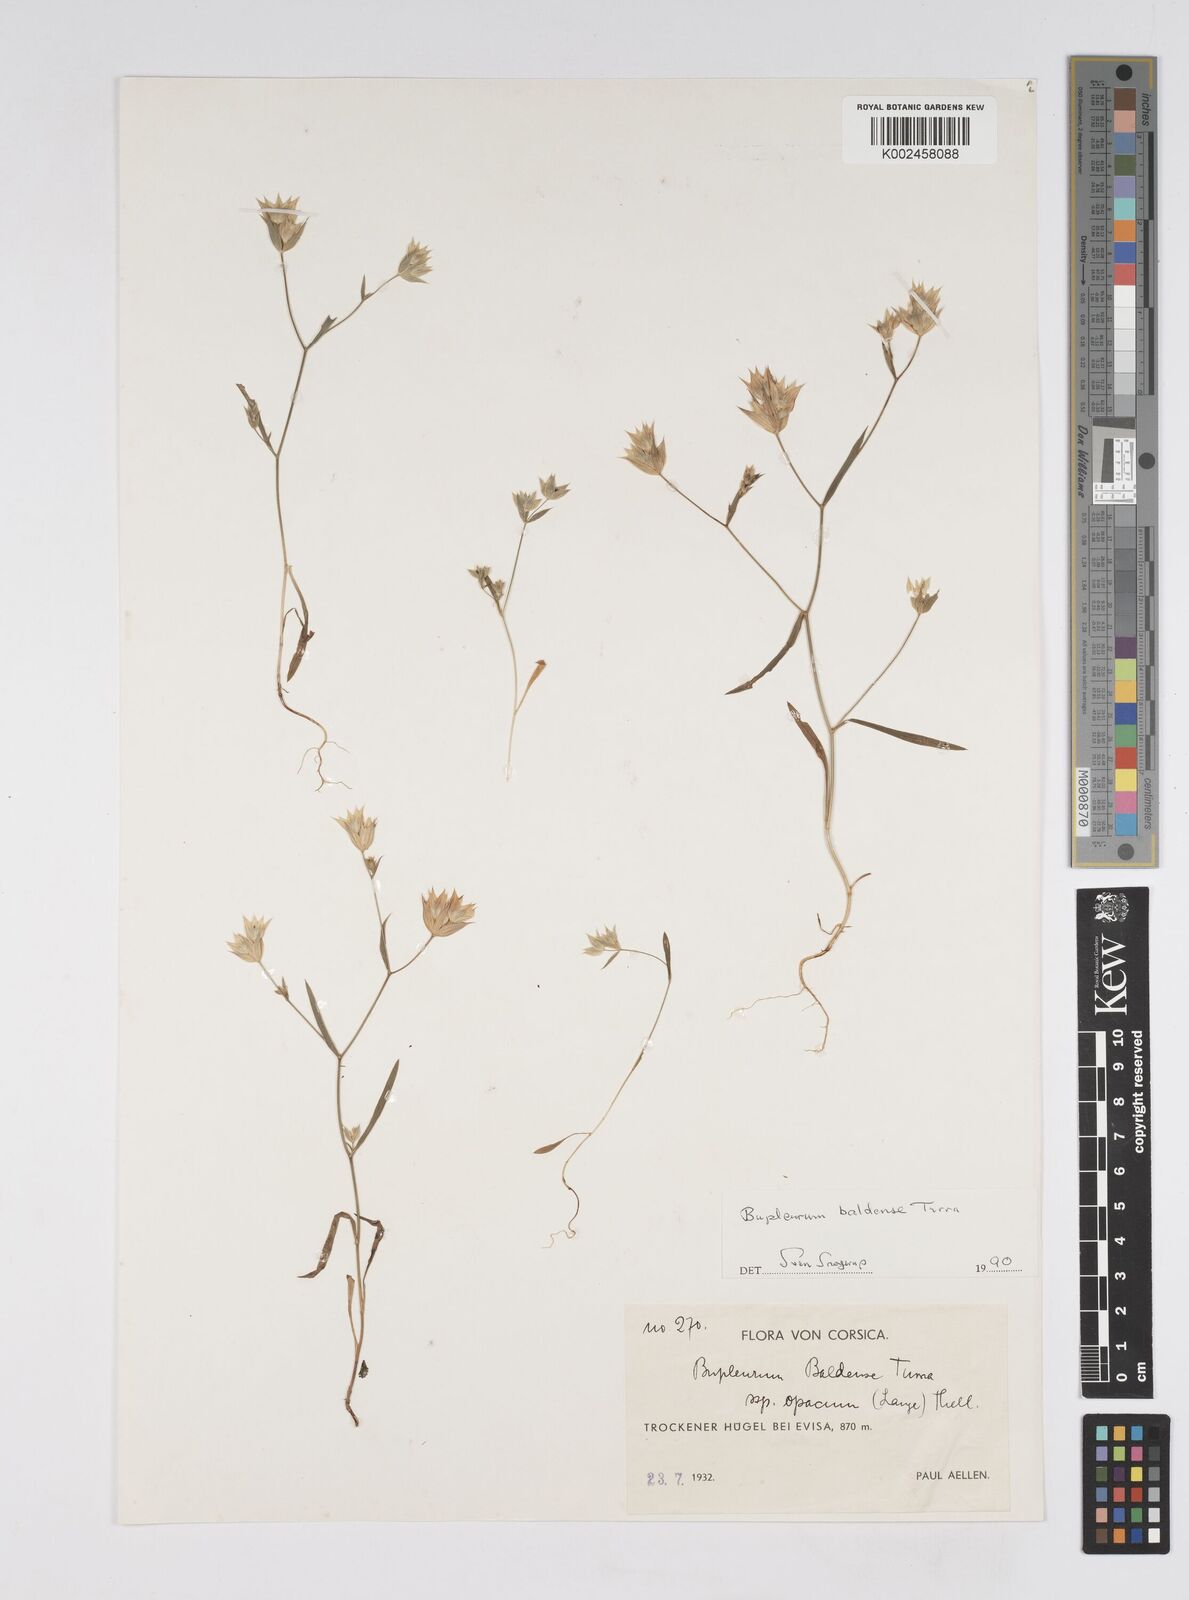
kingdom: Plantae
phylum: Tracheophyta
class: Magnoliopsida
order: Apiales
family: Apiaceae
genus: Bupleurum
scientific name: Bupleurum baldense
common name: Small hare's-ear
